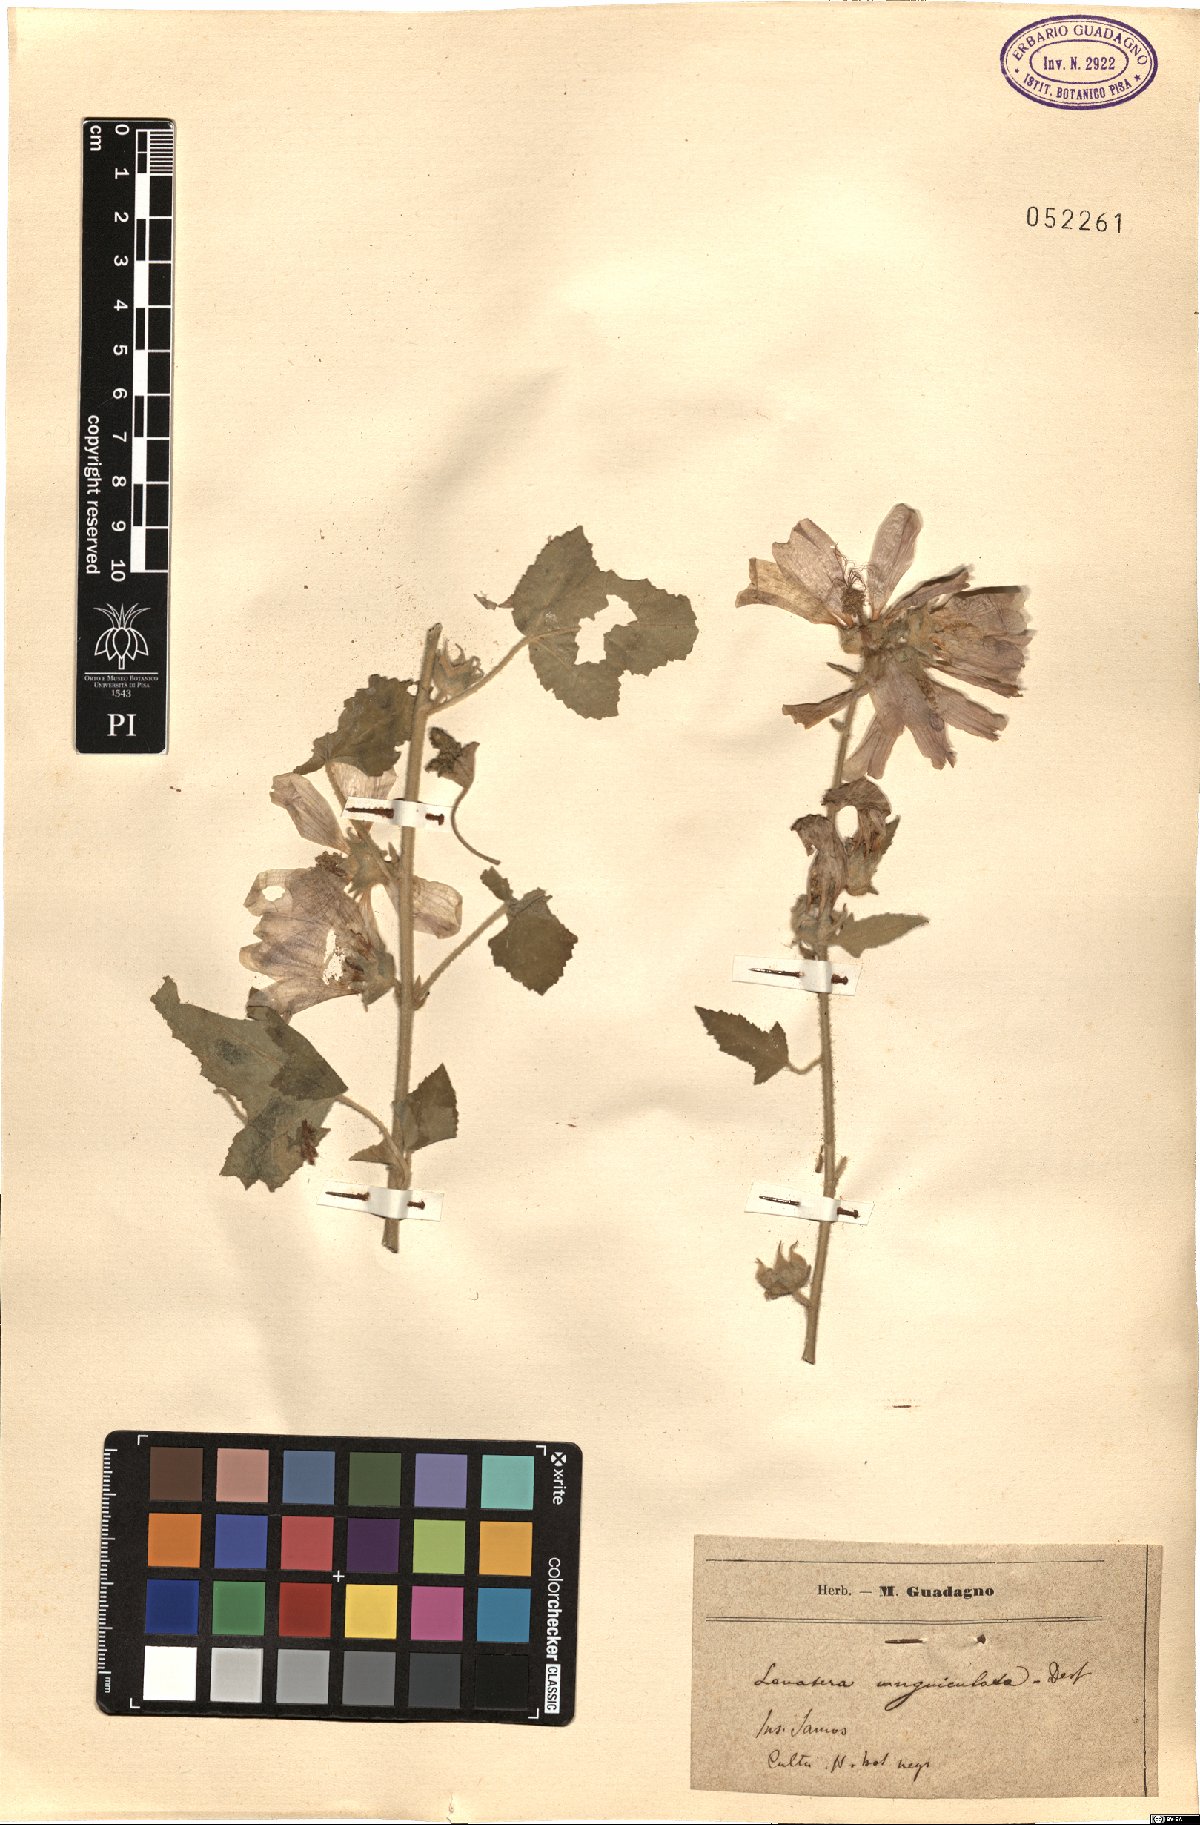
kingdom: Plantae
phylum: Tracheophyta
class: Magnoliopsida
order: Malvales
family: Malvaceae
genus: Malva
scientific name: Malva unguiculata
